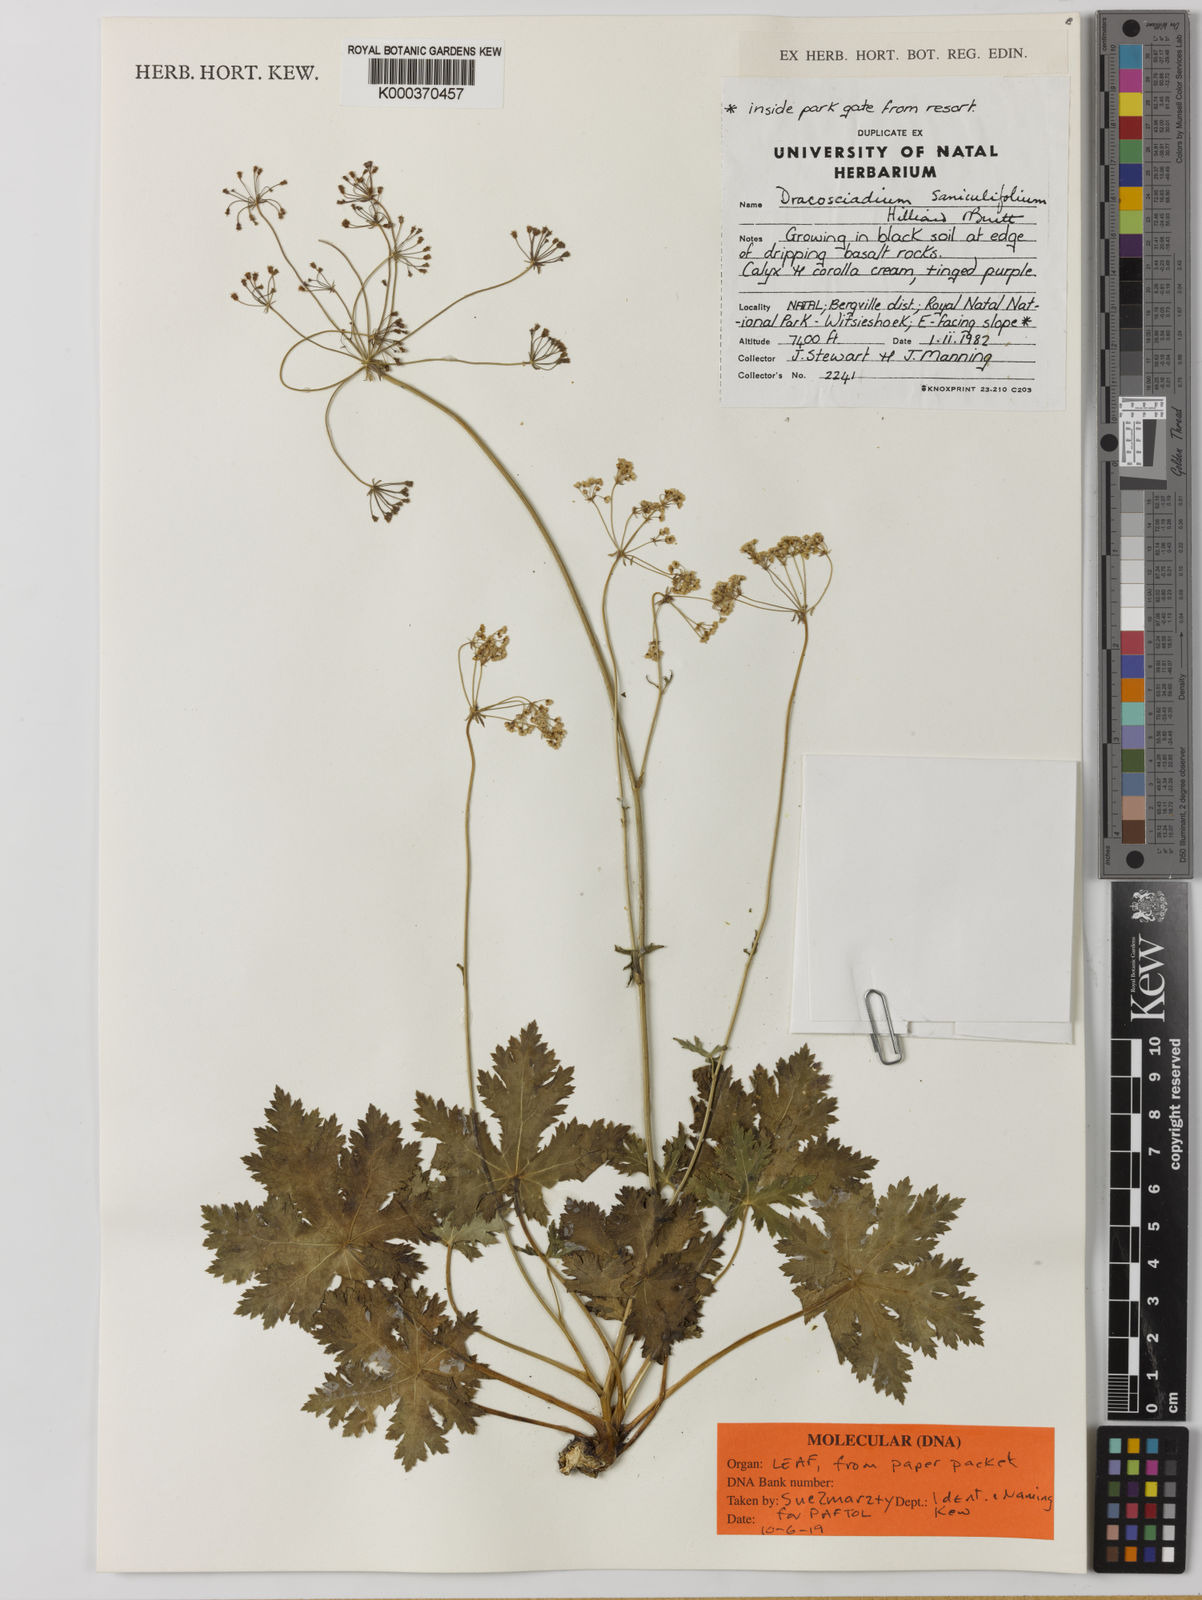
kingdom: Plantae
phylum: Tracheophyta
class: Magnoliopsida
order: Apiales
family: Apiaceae
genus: Dracosciadium
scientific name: Dracosciadium saniculifolium
